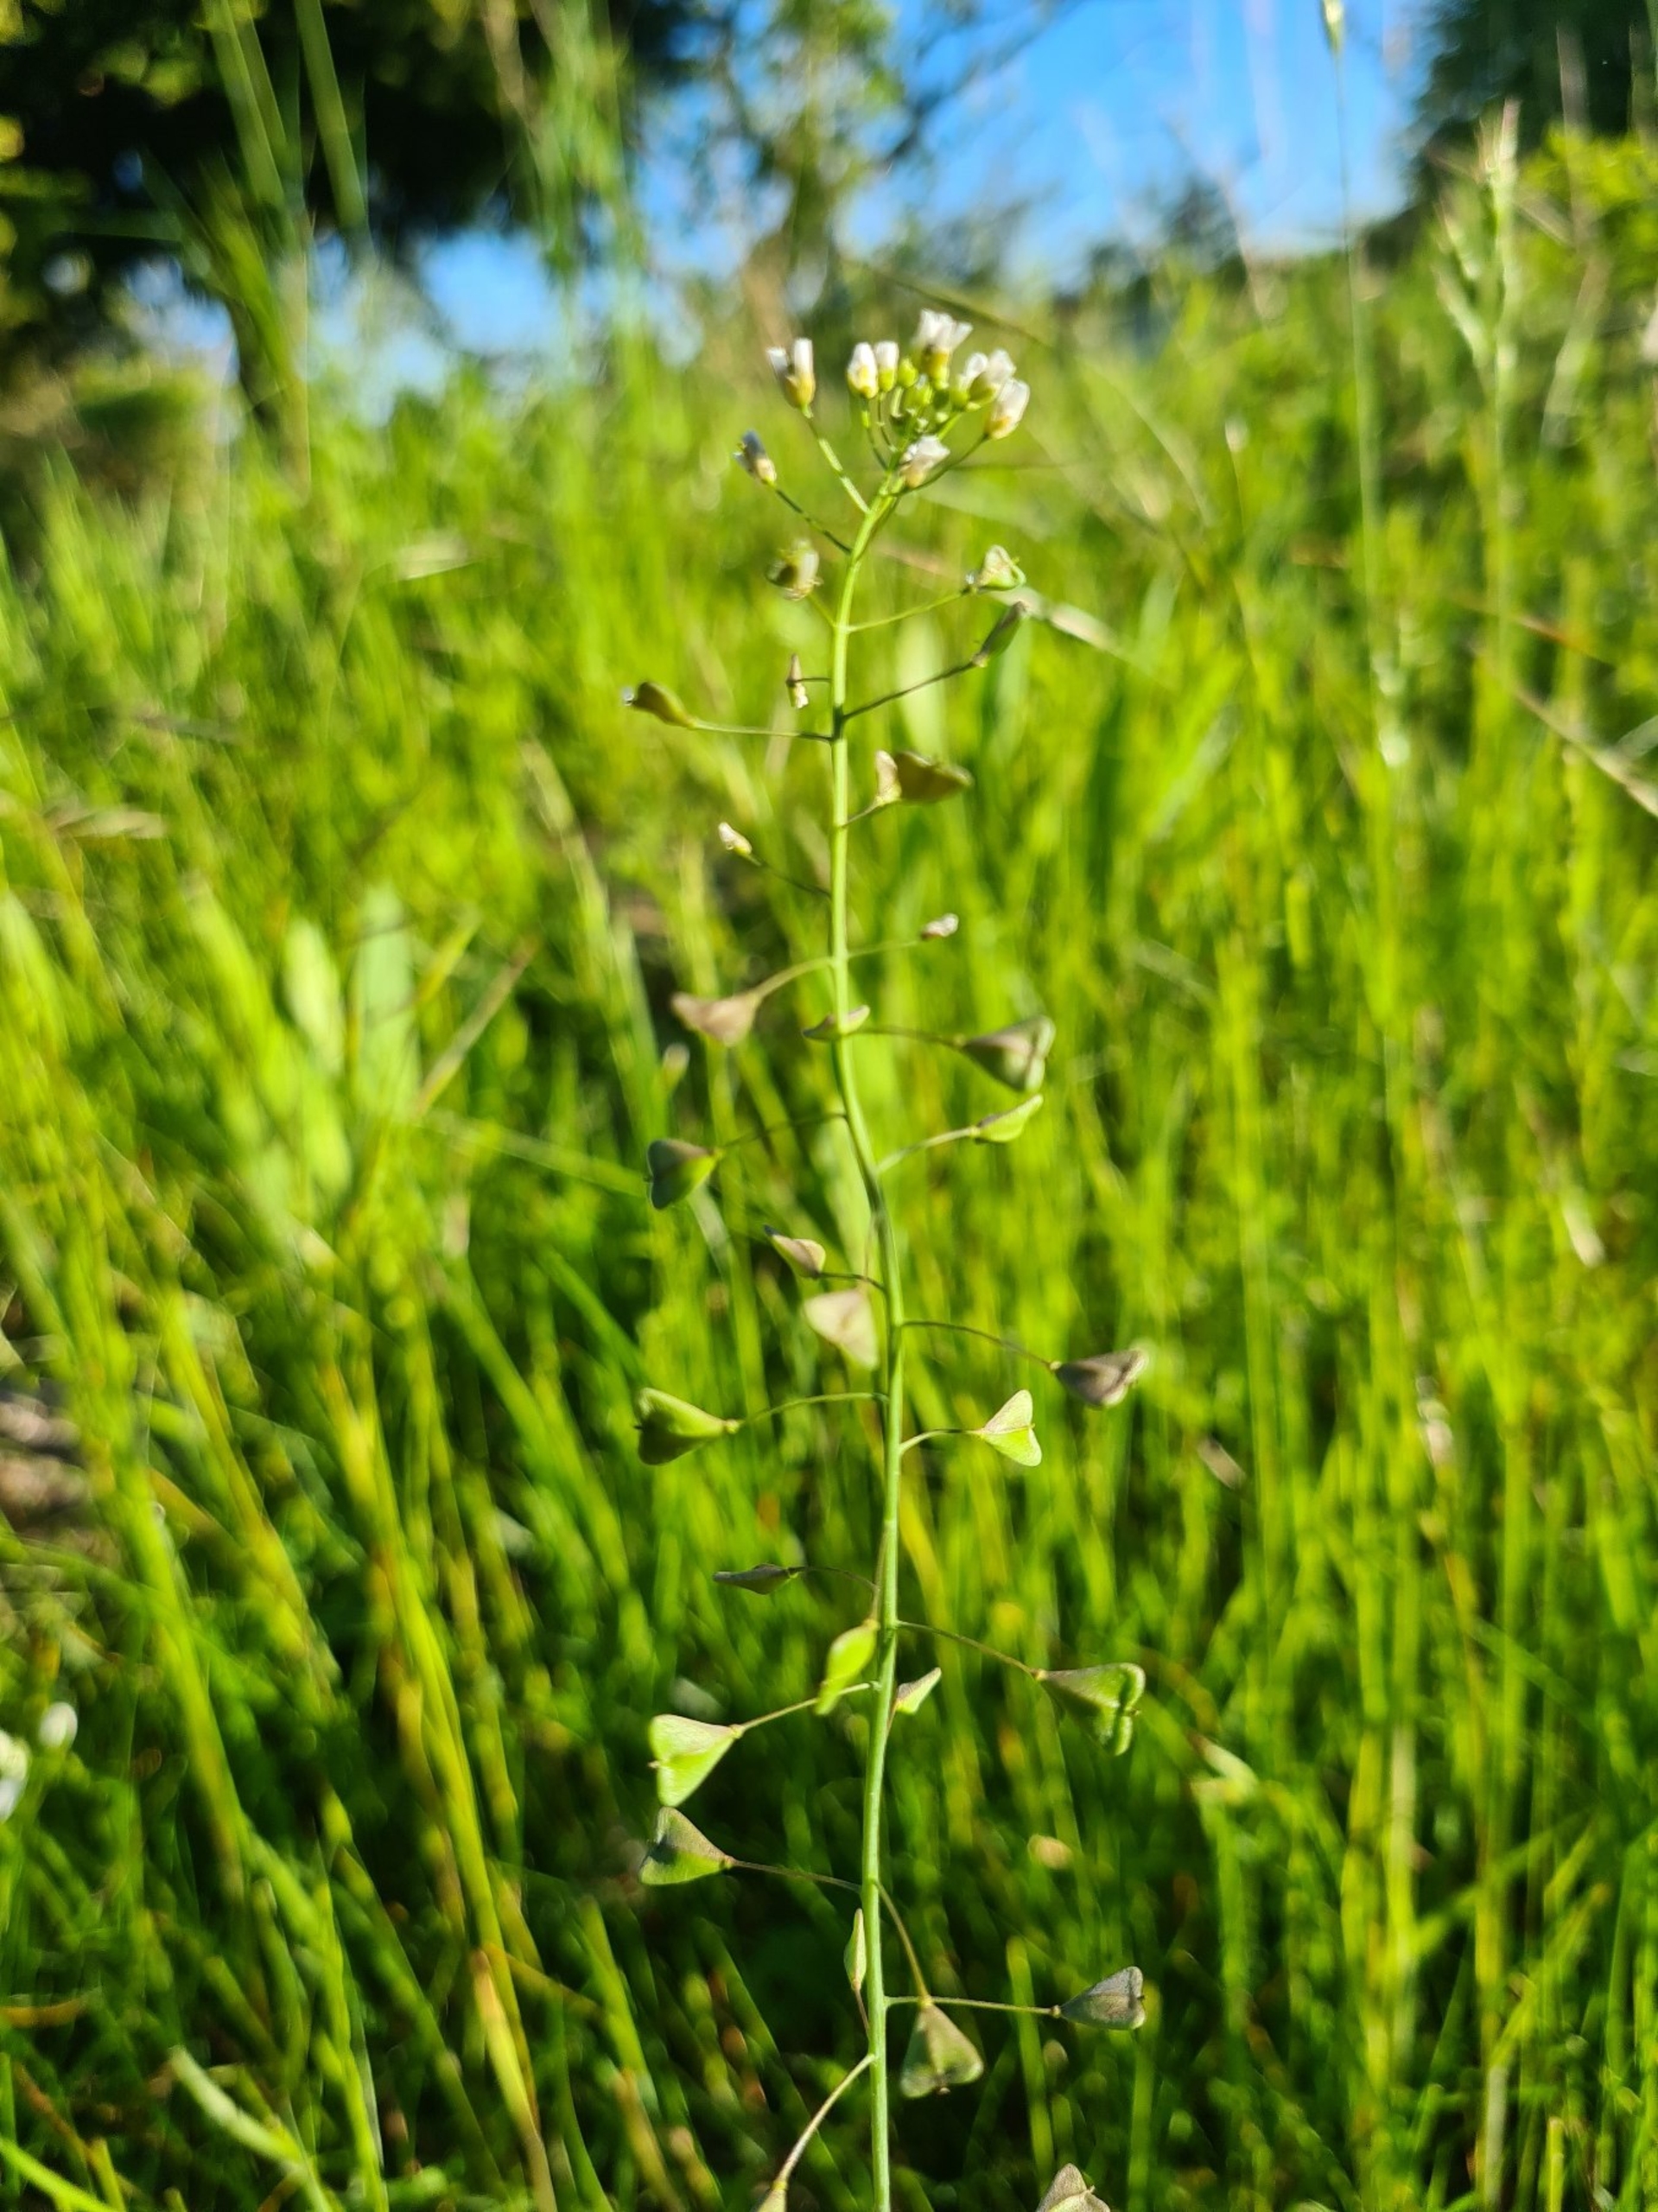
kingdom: Plantae
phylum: Tracheophyta
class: Magnoliopsida
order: Brassicales
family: Brassicaceae
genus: Capsella
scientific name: Capsella bursa-pastoris
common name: Hyrdetaske
